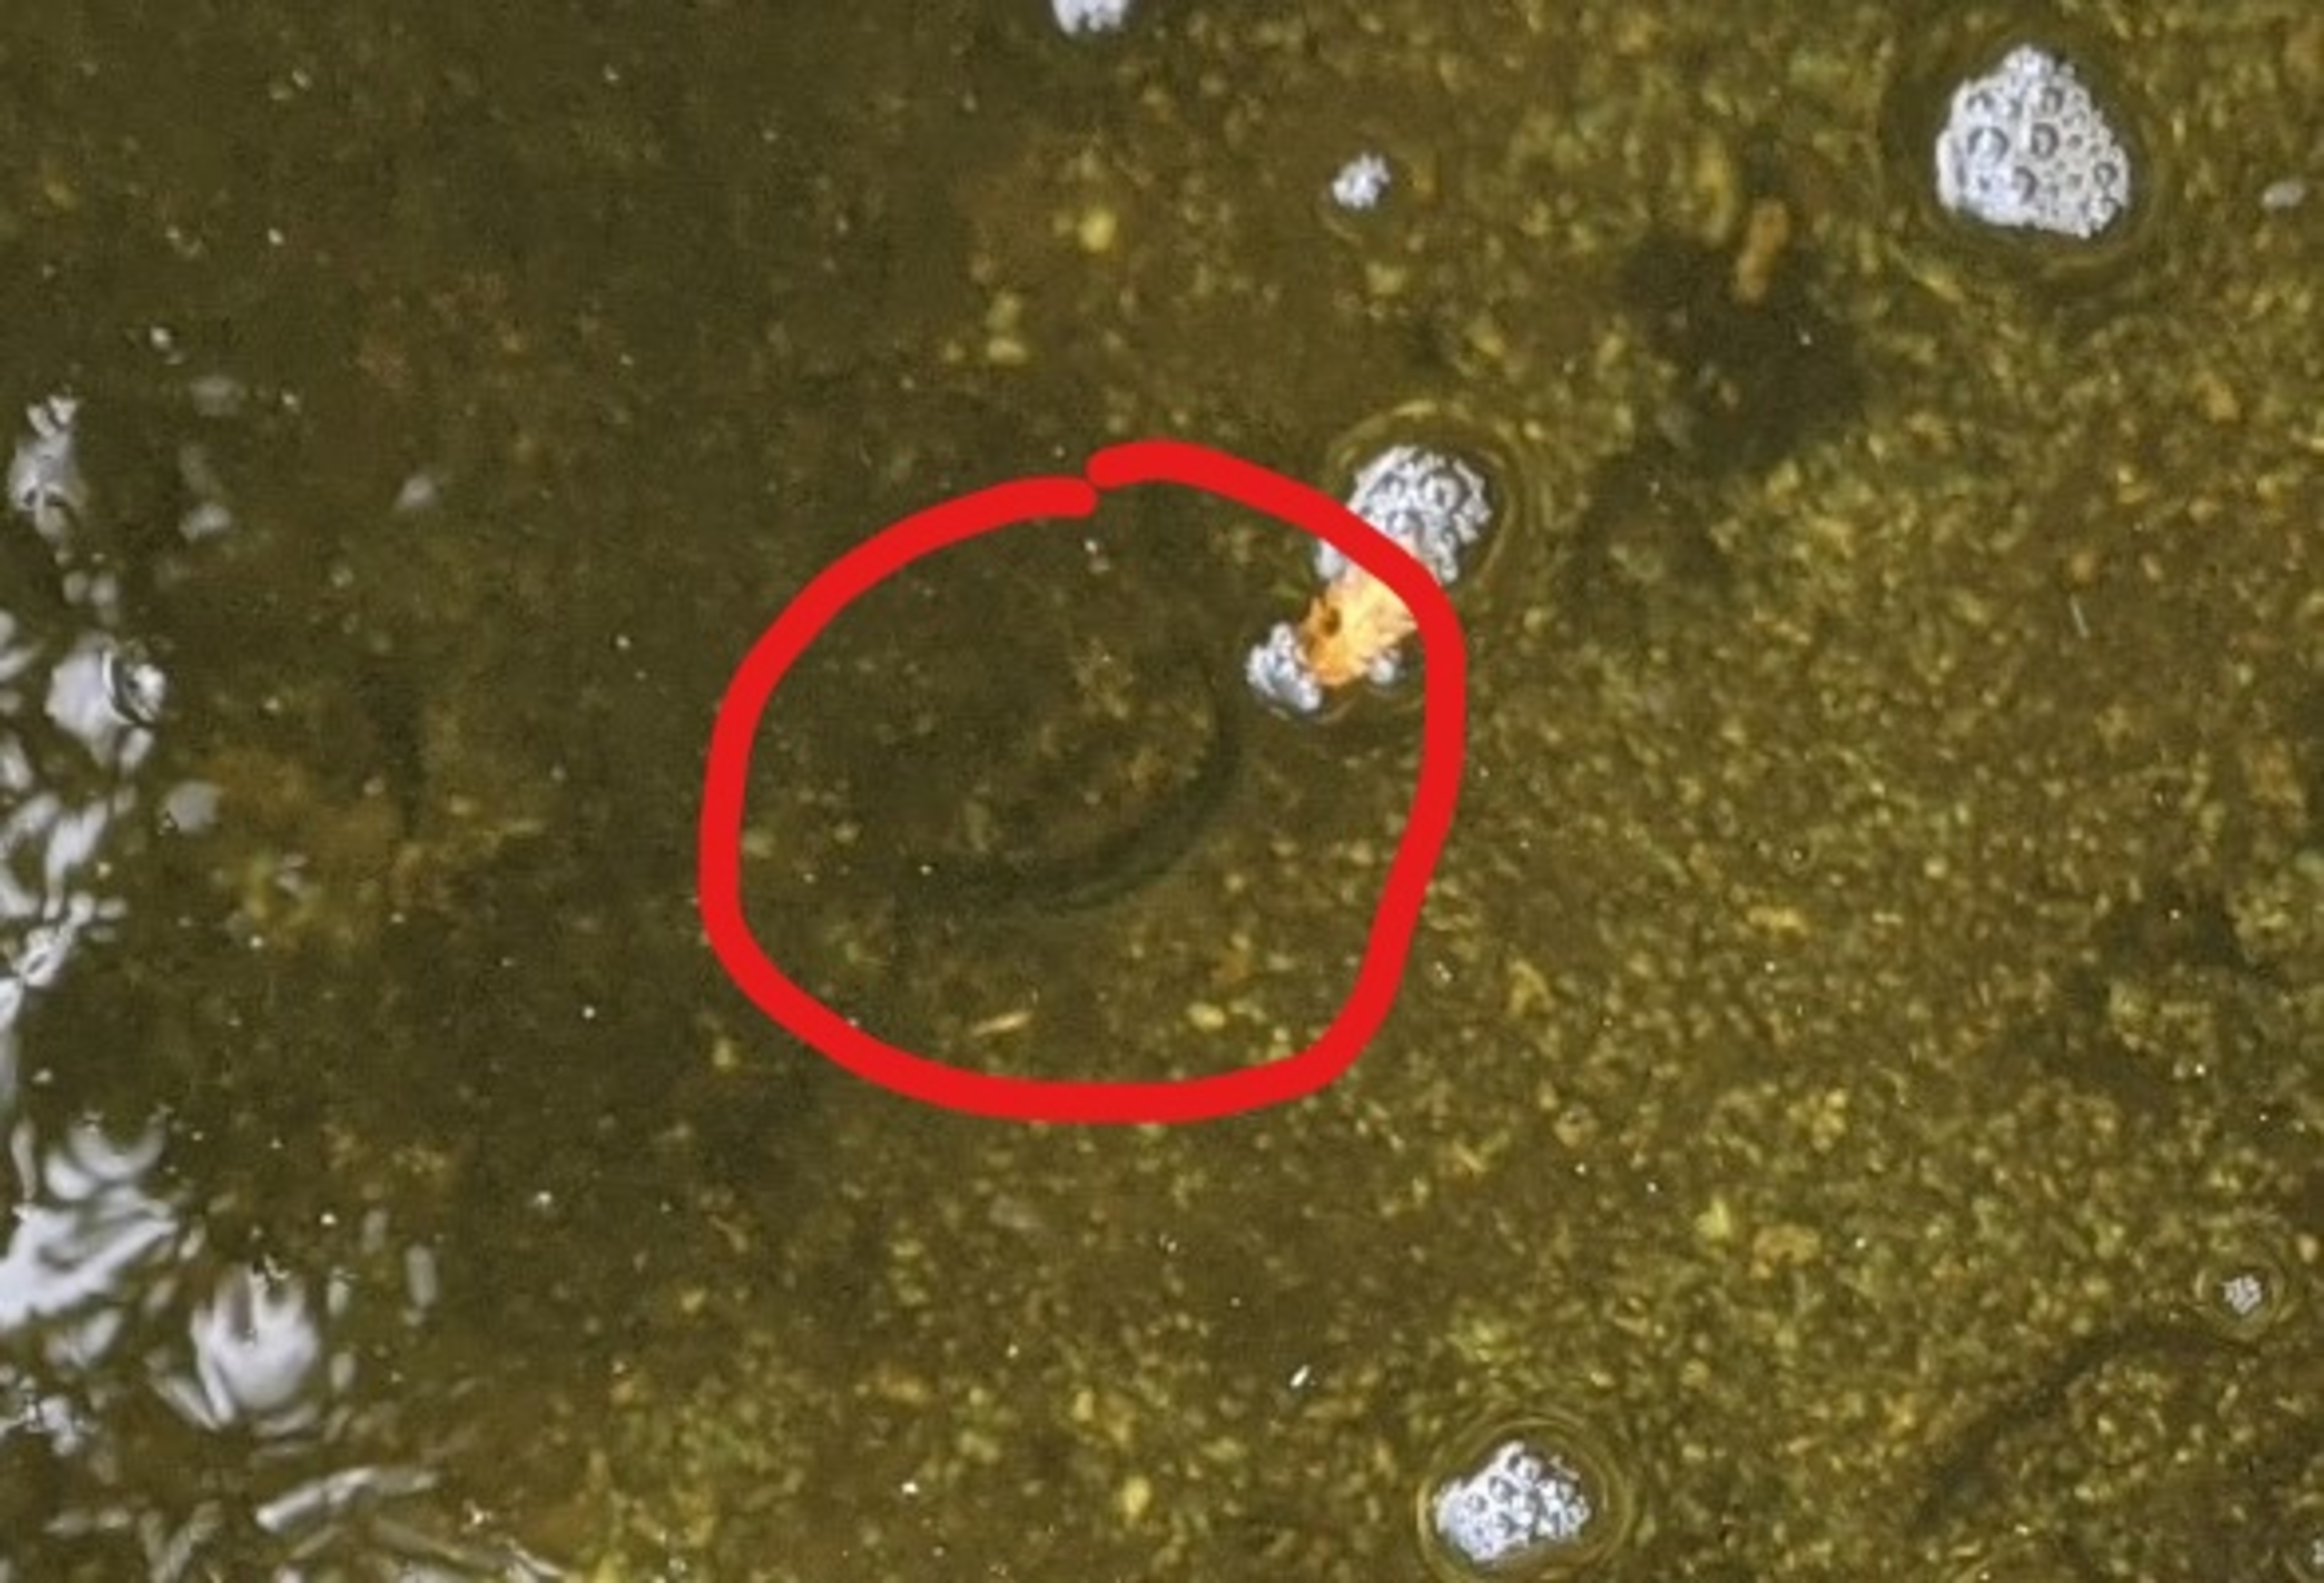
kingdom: Animalia
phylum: Chordata
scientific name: Chordata
